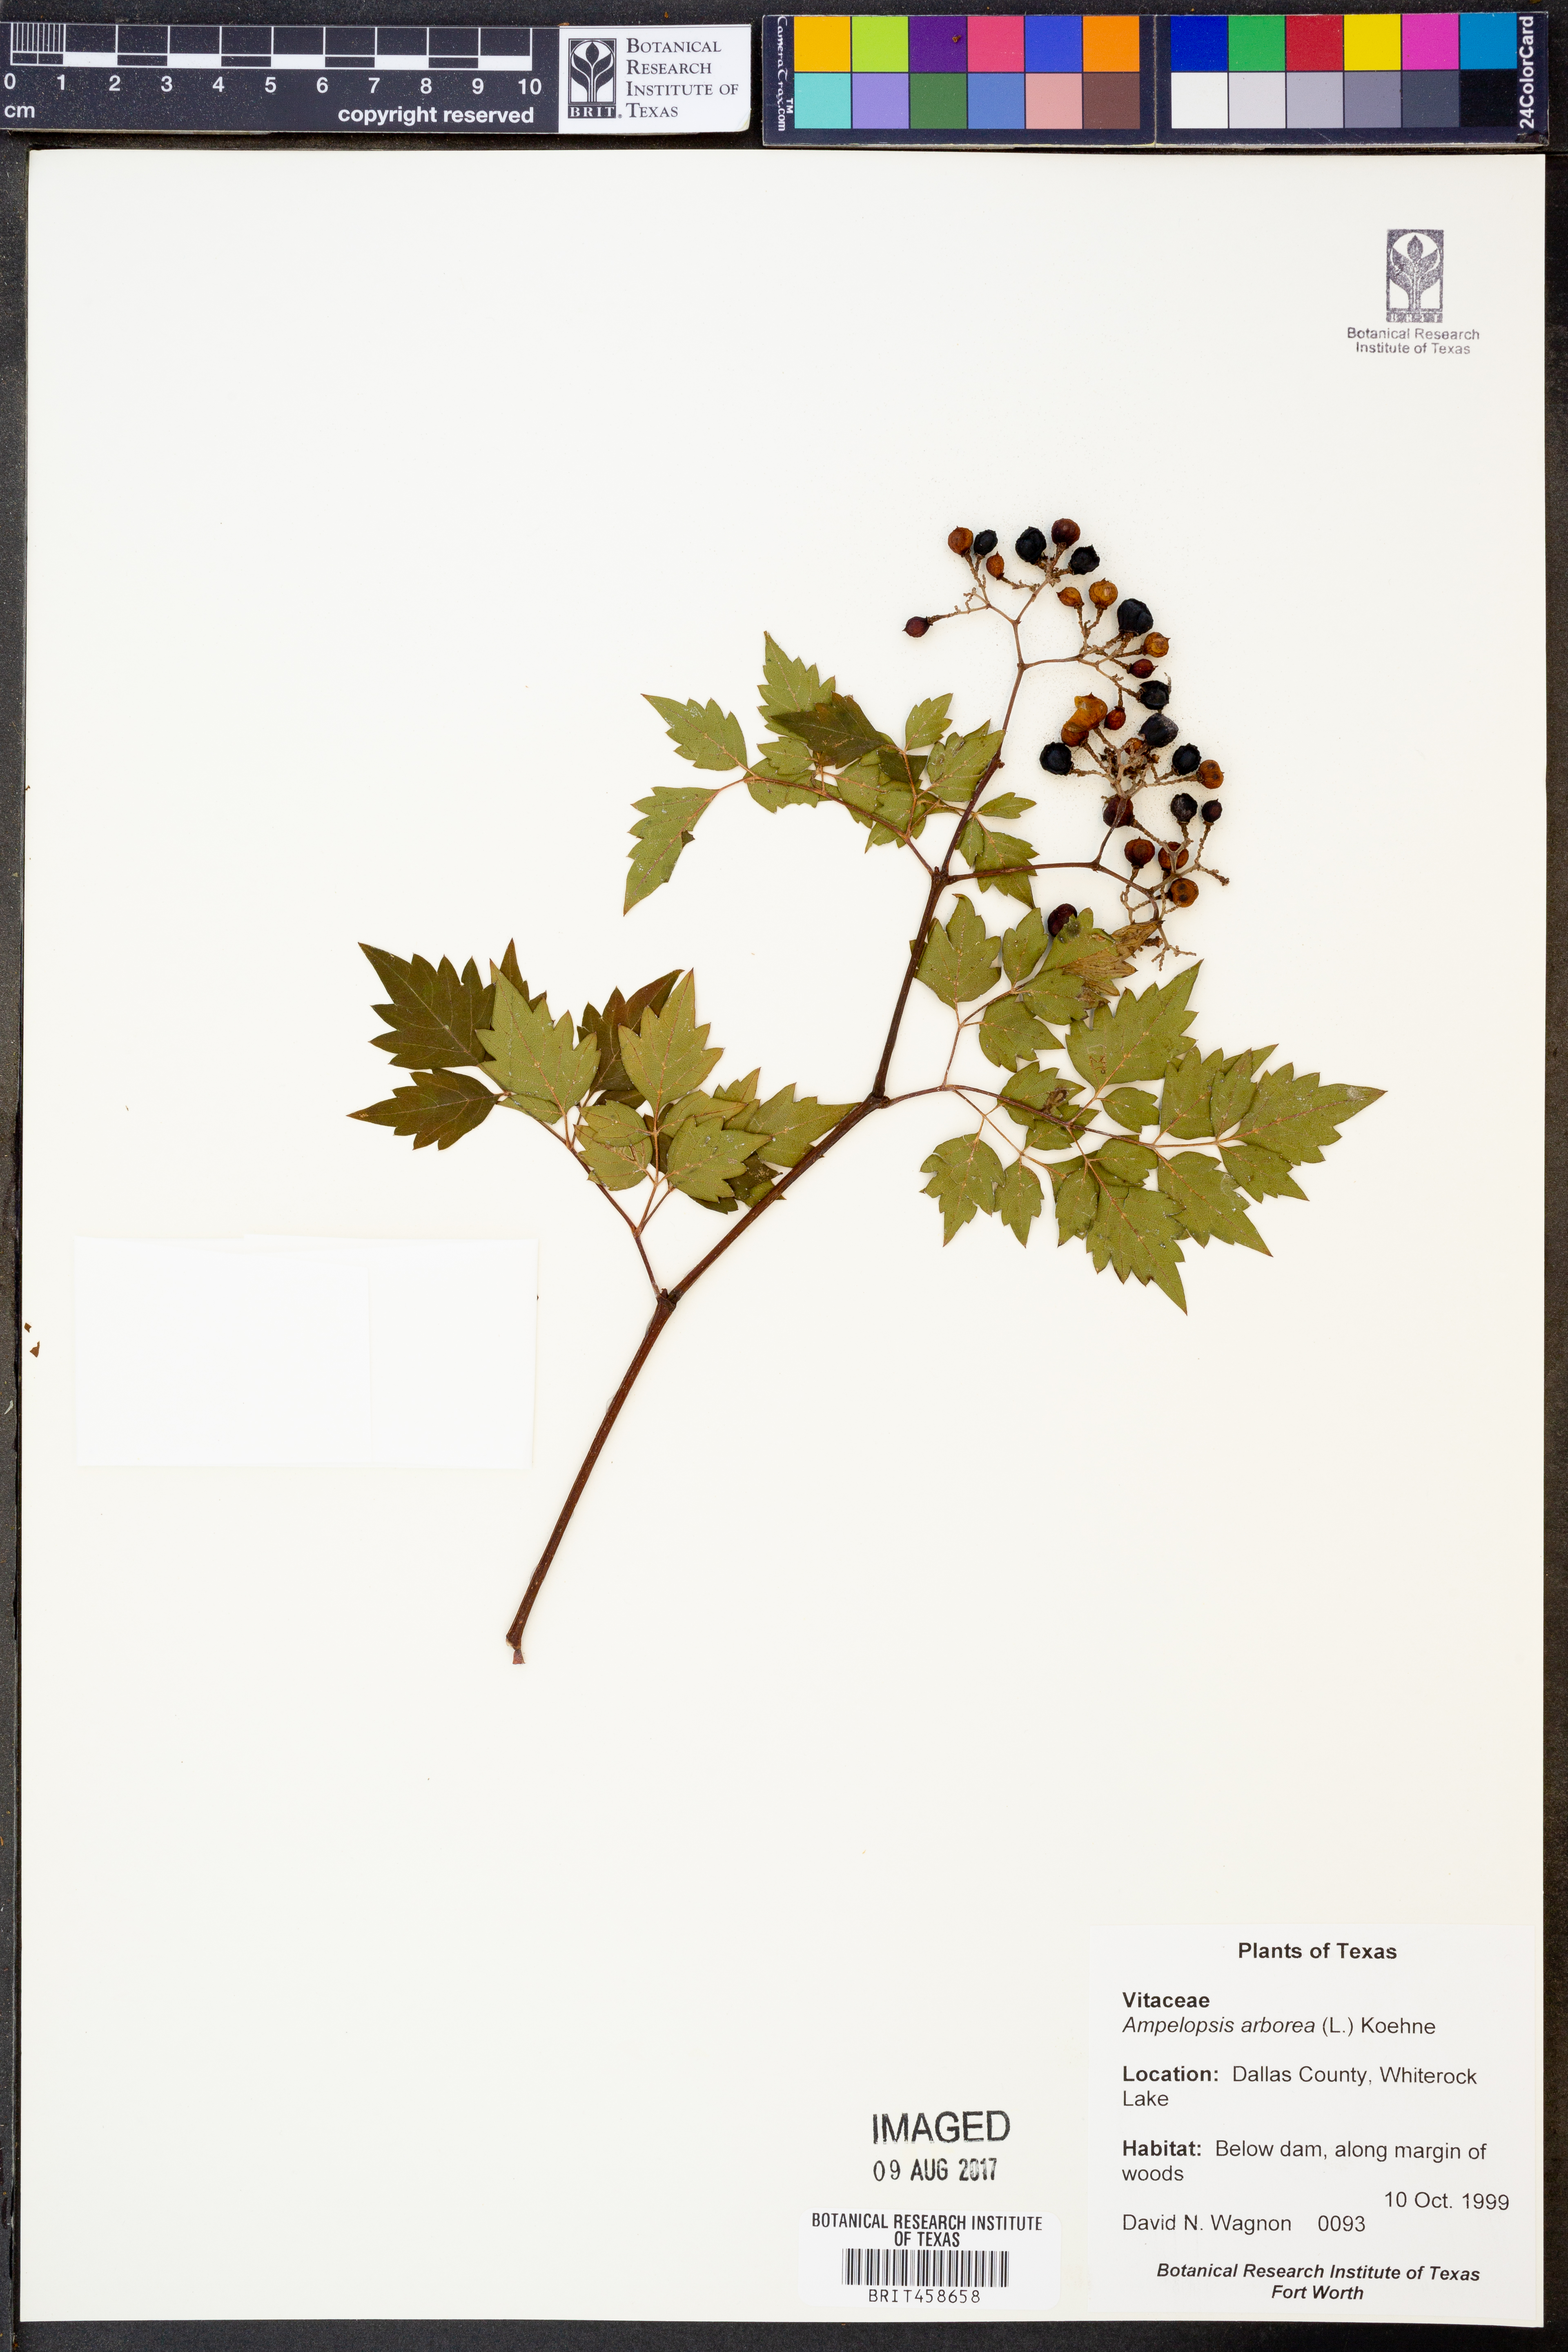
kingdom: Plantae
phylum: Tracheophyta
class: Magnoliopsida
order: Vitales
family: Vitaceae
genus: Nekemias
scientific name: Nekemias arborea
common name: Peppervine
